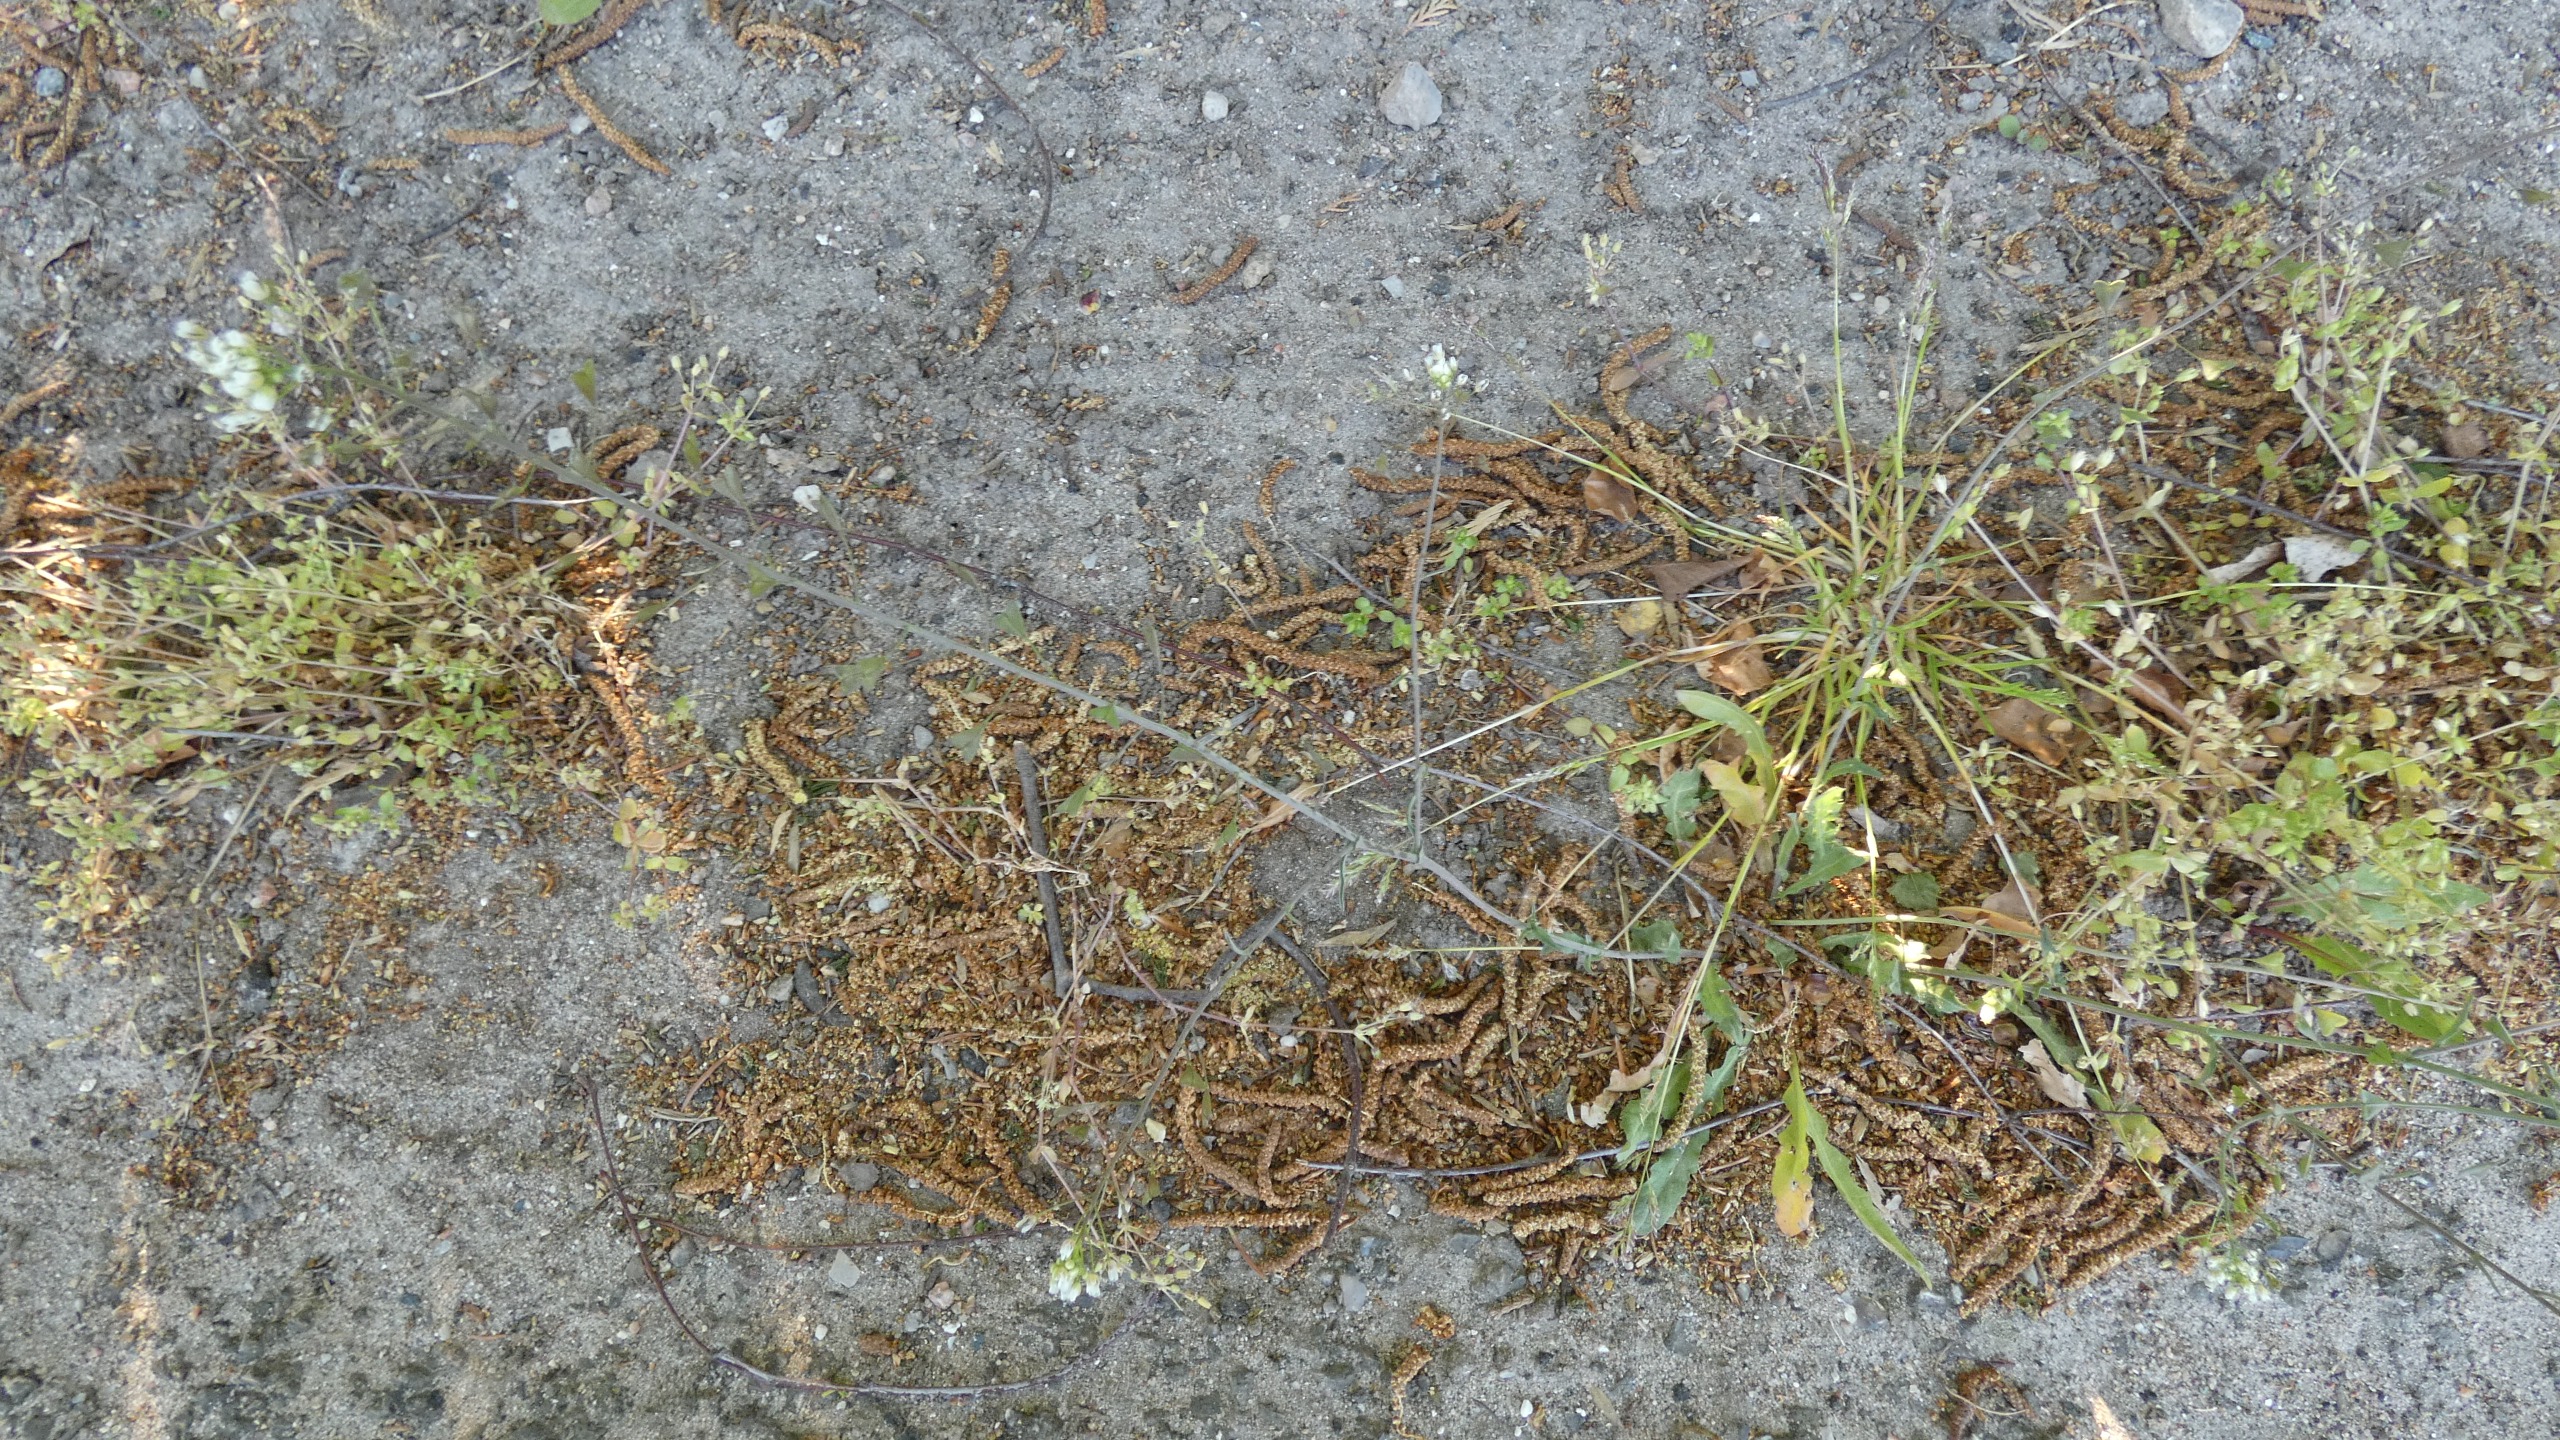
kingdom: Plantae
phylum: Tracheophyta
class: Magnoliopsida
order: Brassicales
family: Brassicaceae
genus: Capsella
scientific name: Capsella bursa-pastoris
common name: Hyrdetaske
